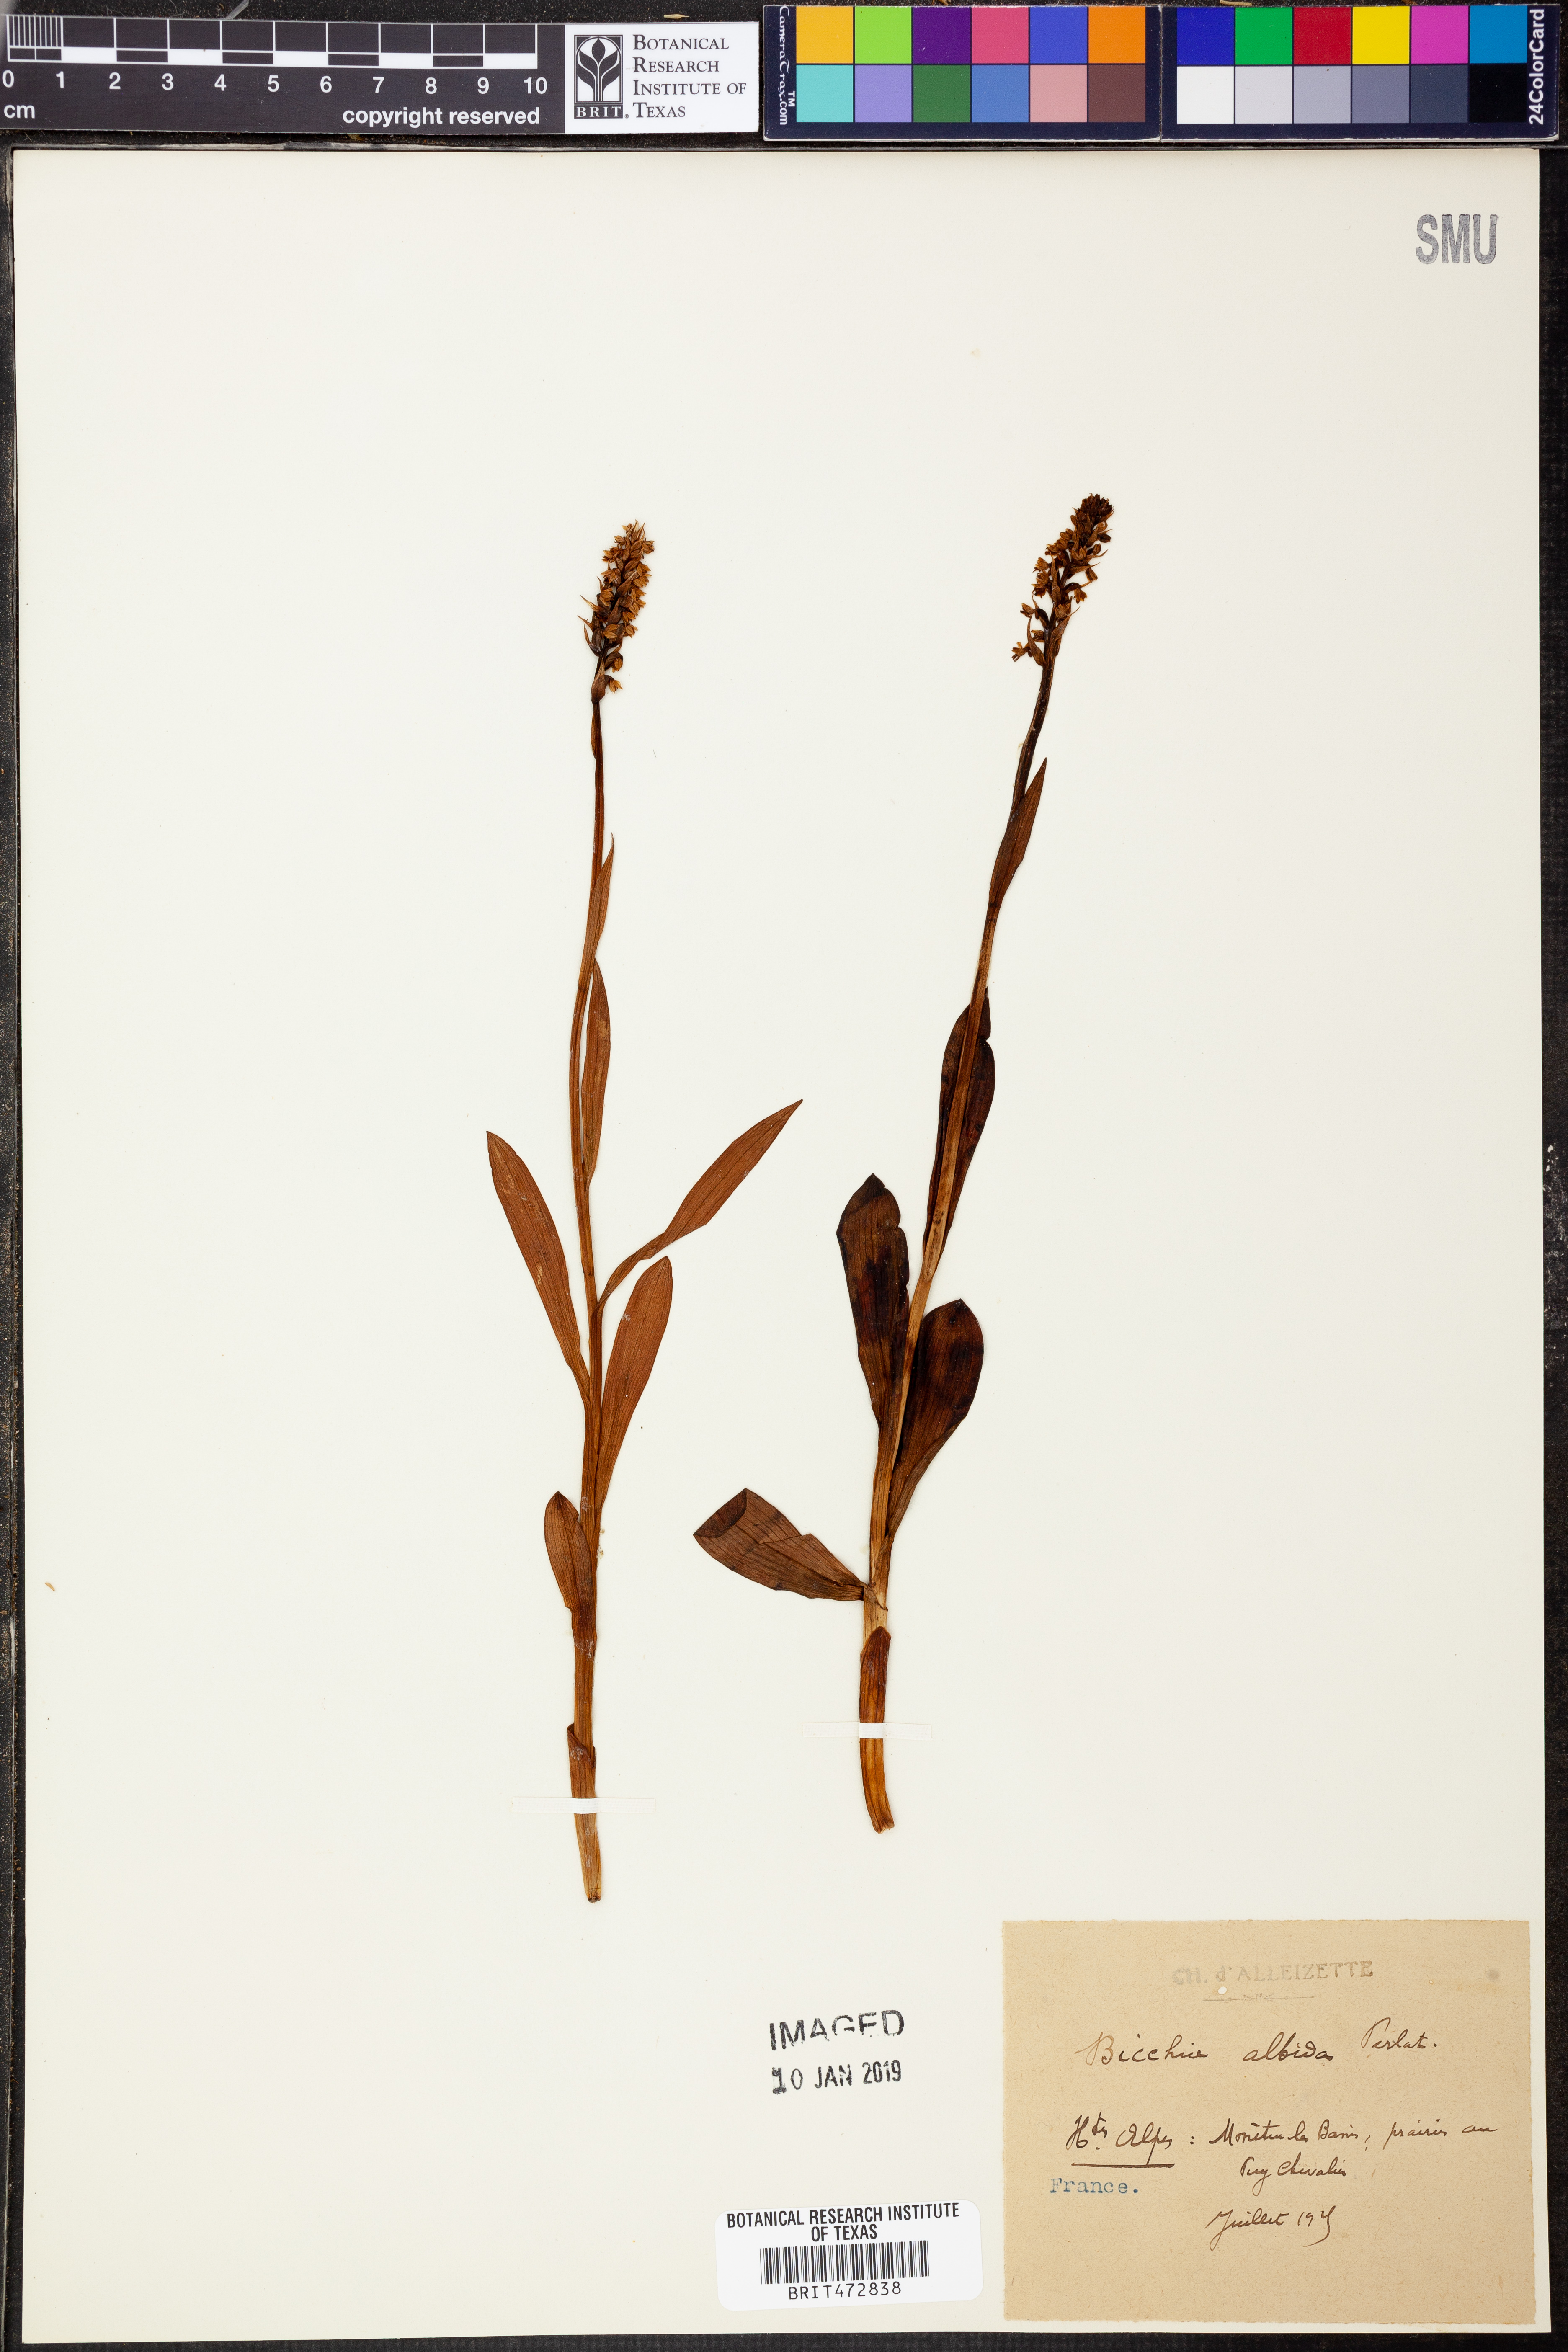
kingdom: Plantae
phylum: Tracheophyta
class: Liliopsida
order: Asparagales
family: Orchidaceae
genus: Pseudorchis
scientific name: Pseudorchis albida
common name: Small-white orchid
